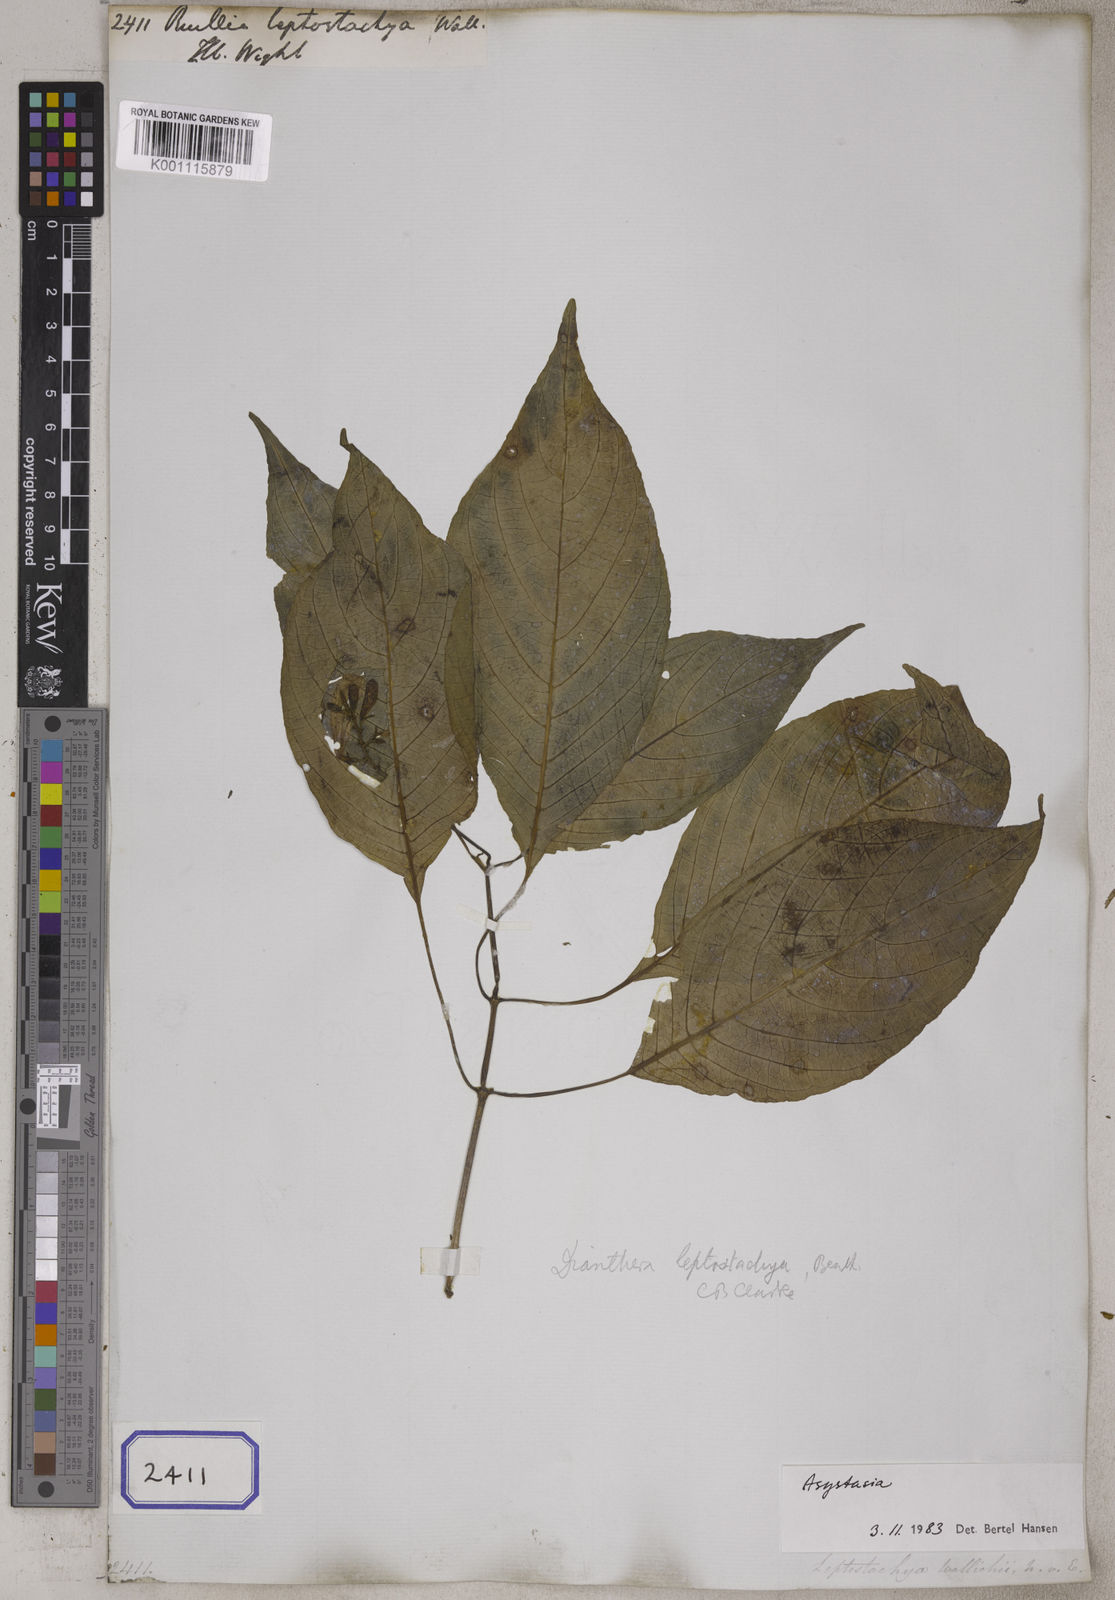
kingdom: Plantae
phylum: Tracheophyta
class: Magnoliopsida
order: Lamiales
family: Acanthaceae
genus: Leptostachya
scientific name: Leptostachya wallichii
